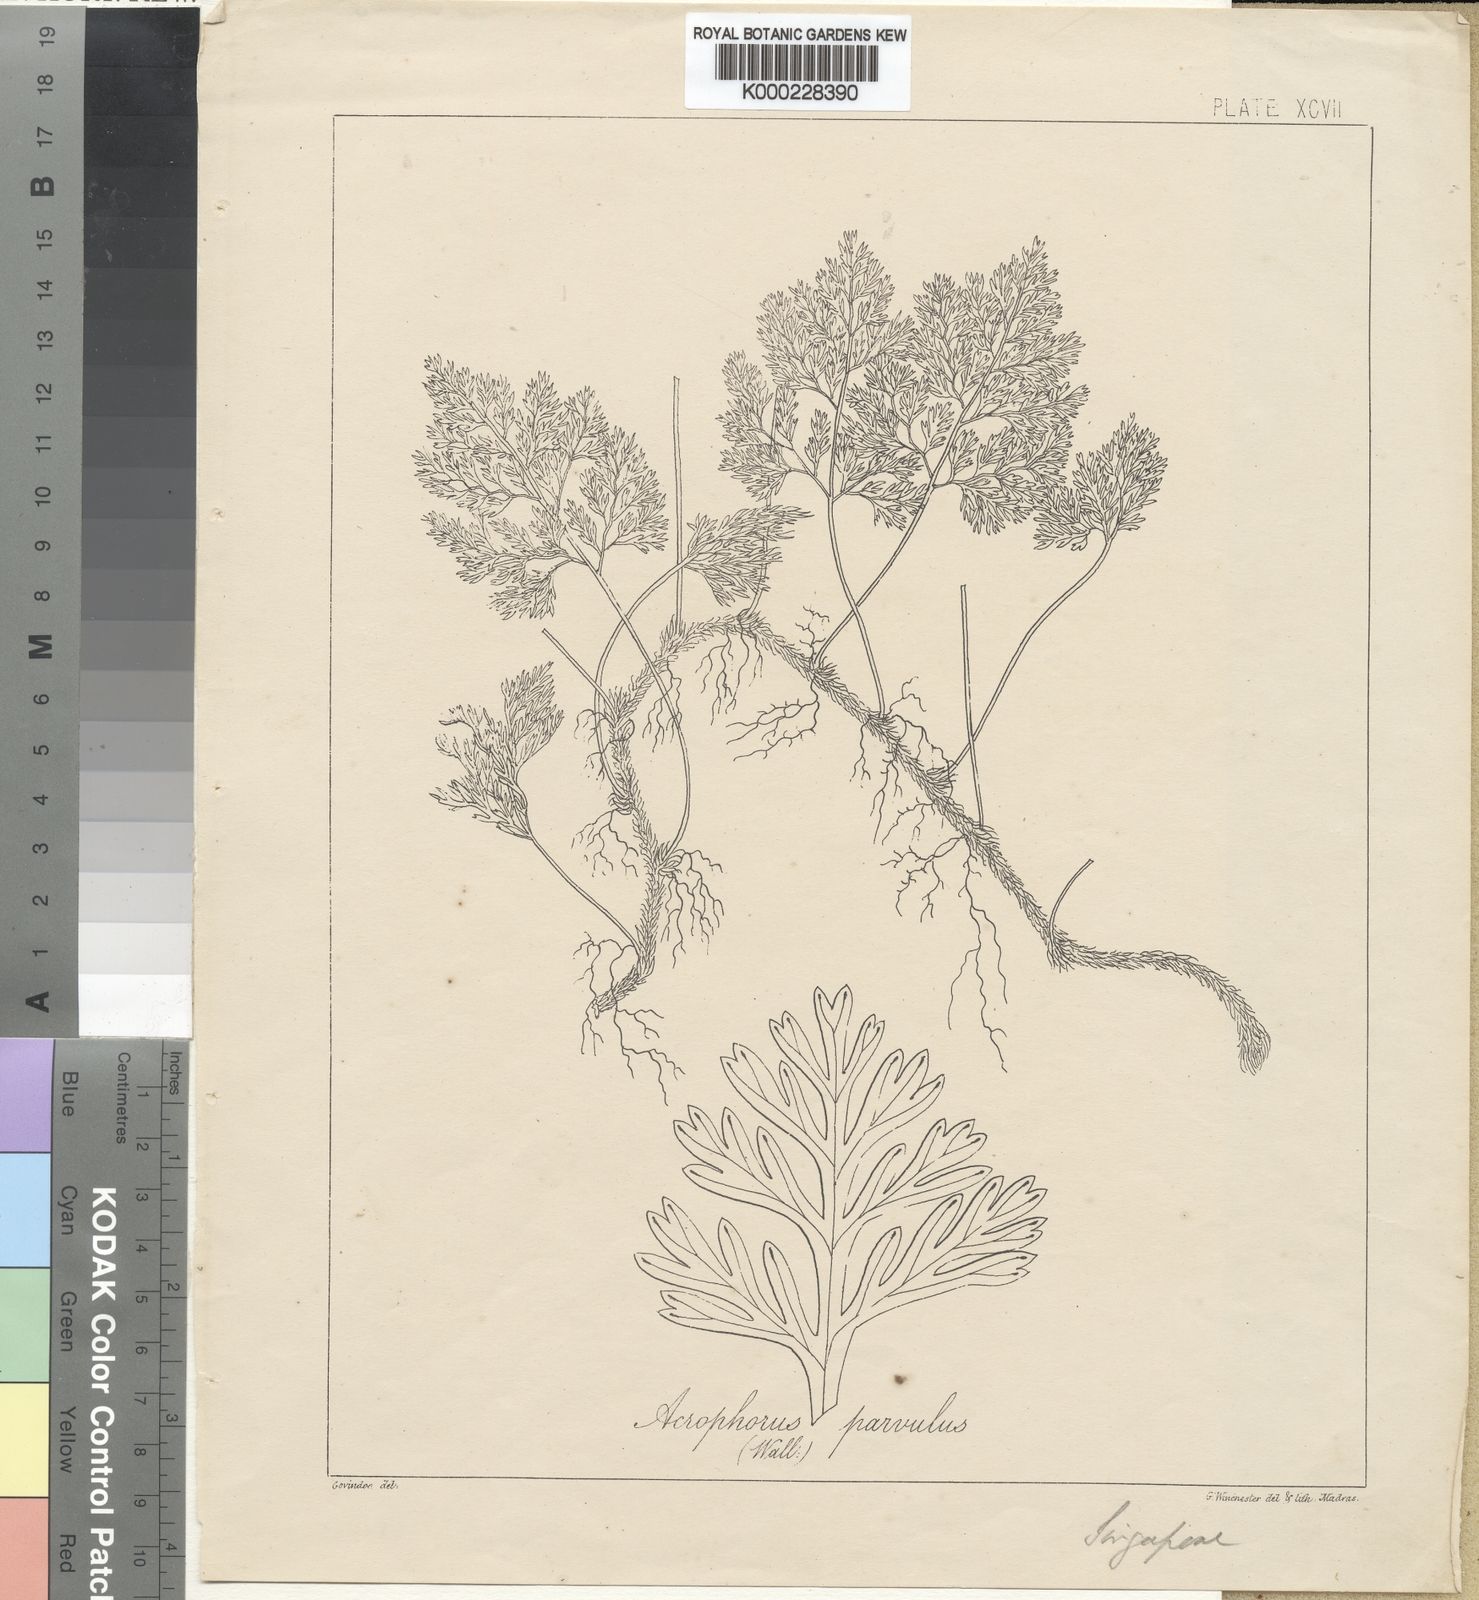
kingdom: Plantae
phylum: Tracheophyta
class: Polypodiopsida
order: Polypodiales
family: Davalliaceae
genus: Davallia
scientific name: Davallia parvula
